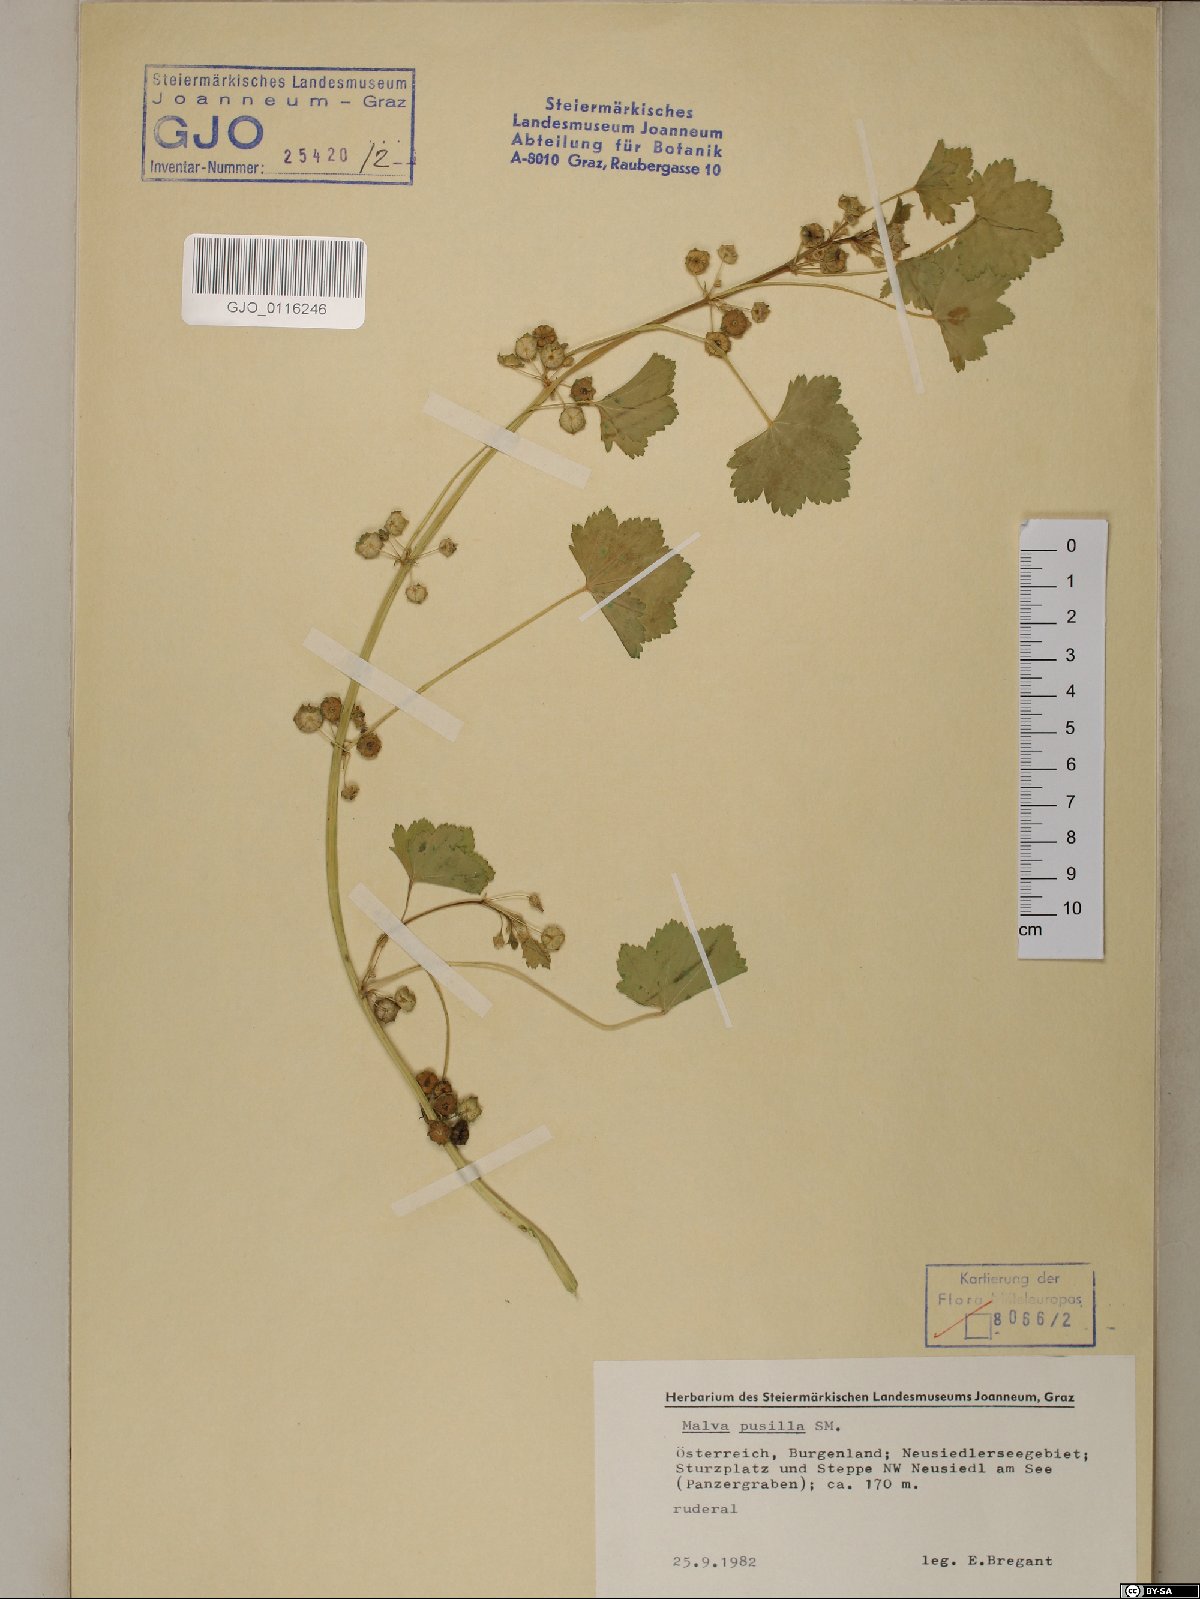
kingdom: Plantae
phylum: Tracheophyta
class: Magnoliopsida
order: Malvales
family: Malvaceae
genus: Malva
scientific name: Malva pusilla
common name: Small mallow
